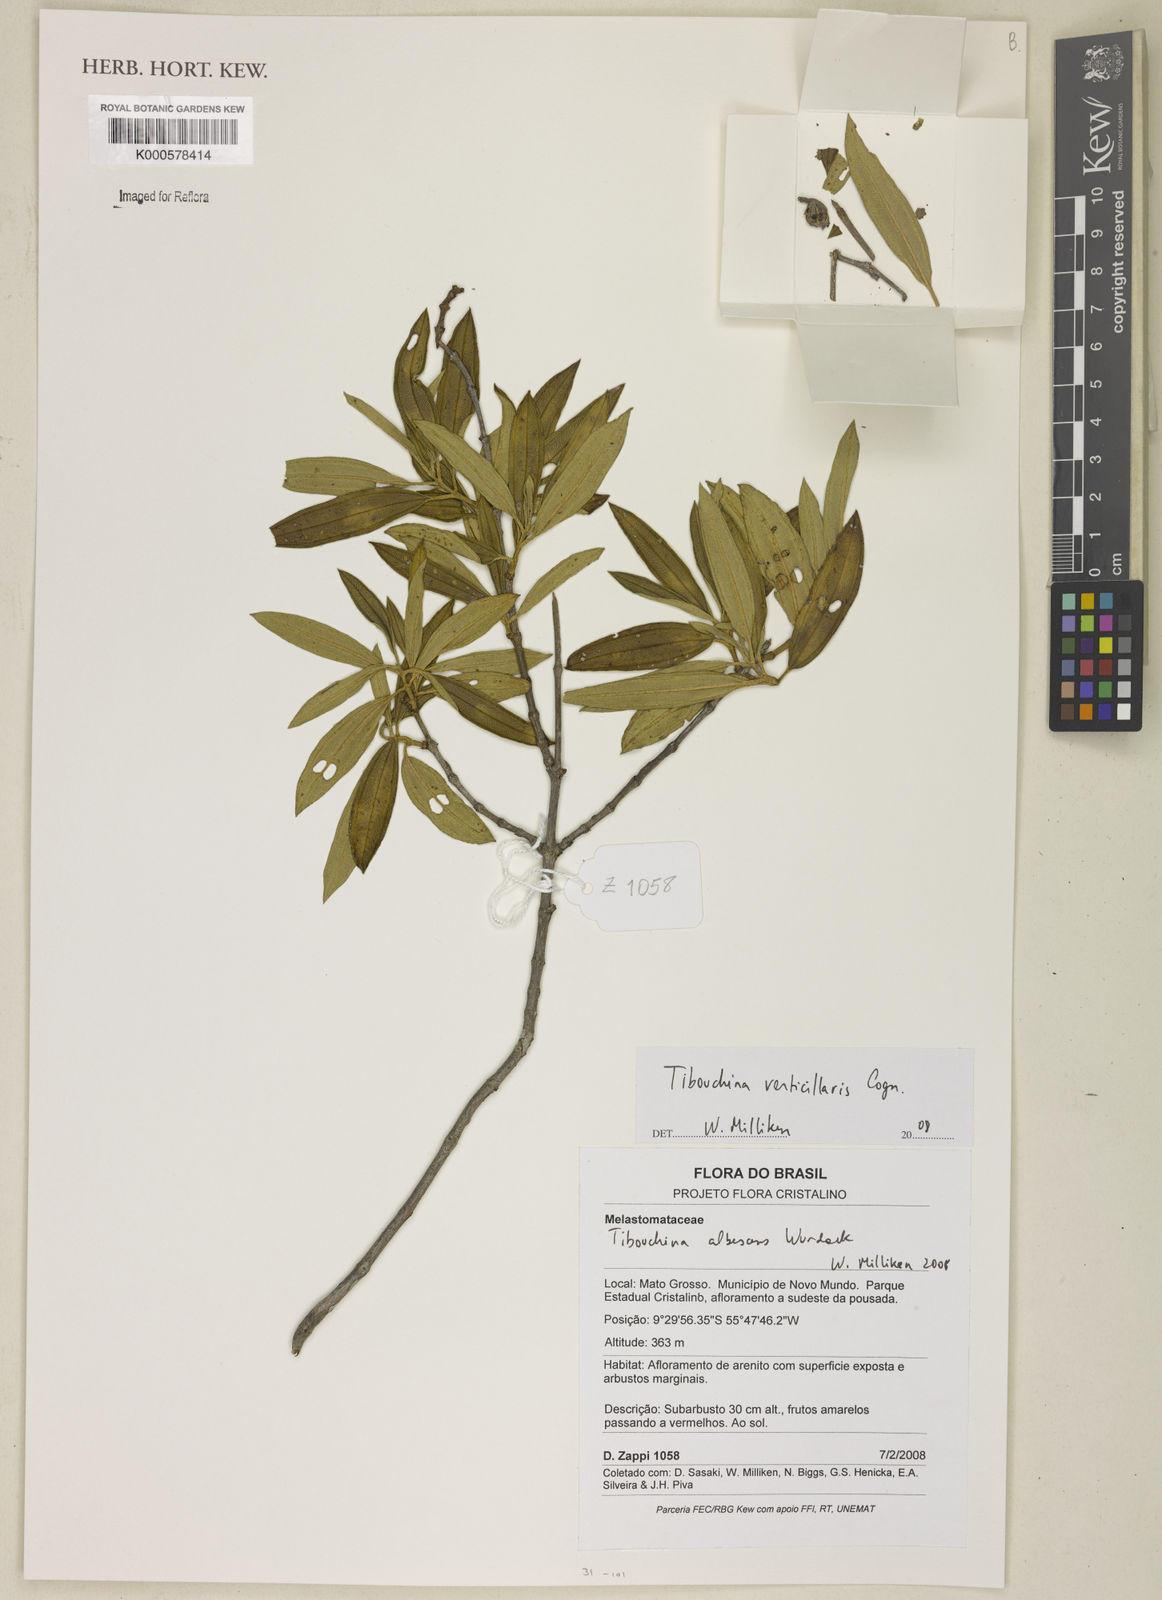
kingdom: Plantae
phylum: Tracheophyta
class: Magnoliopsida
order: Myrtales
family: Melastomataceae
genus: Tibouchina
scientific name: Tibouchina verticillaris
